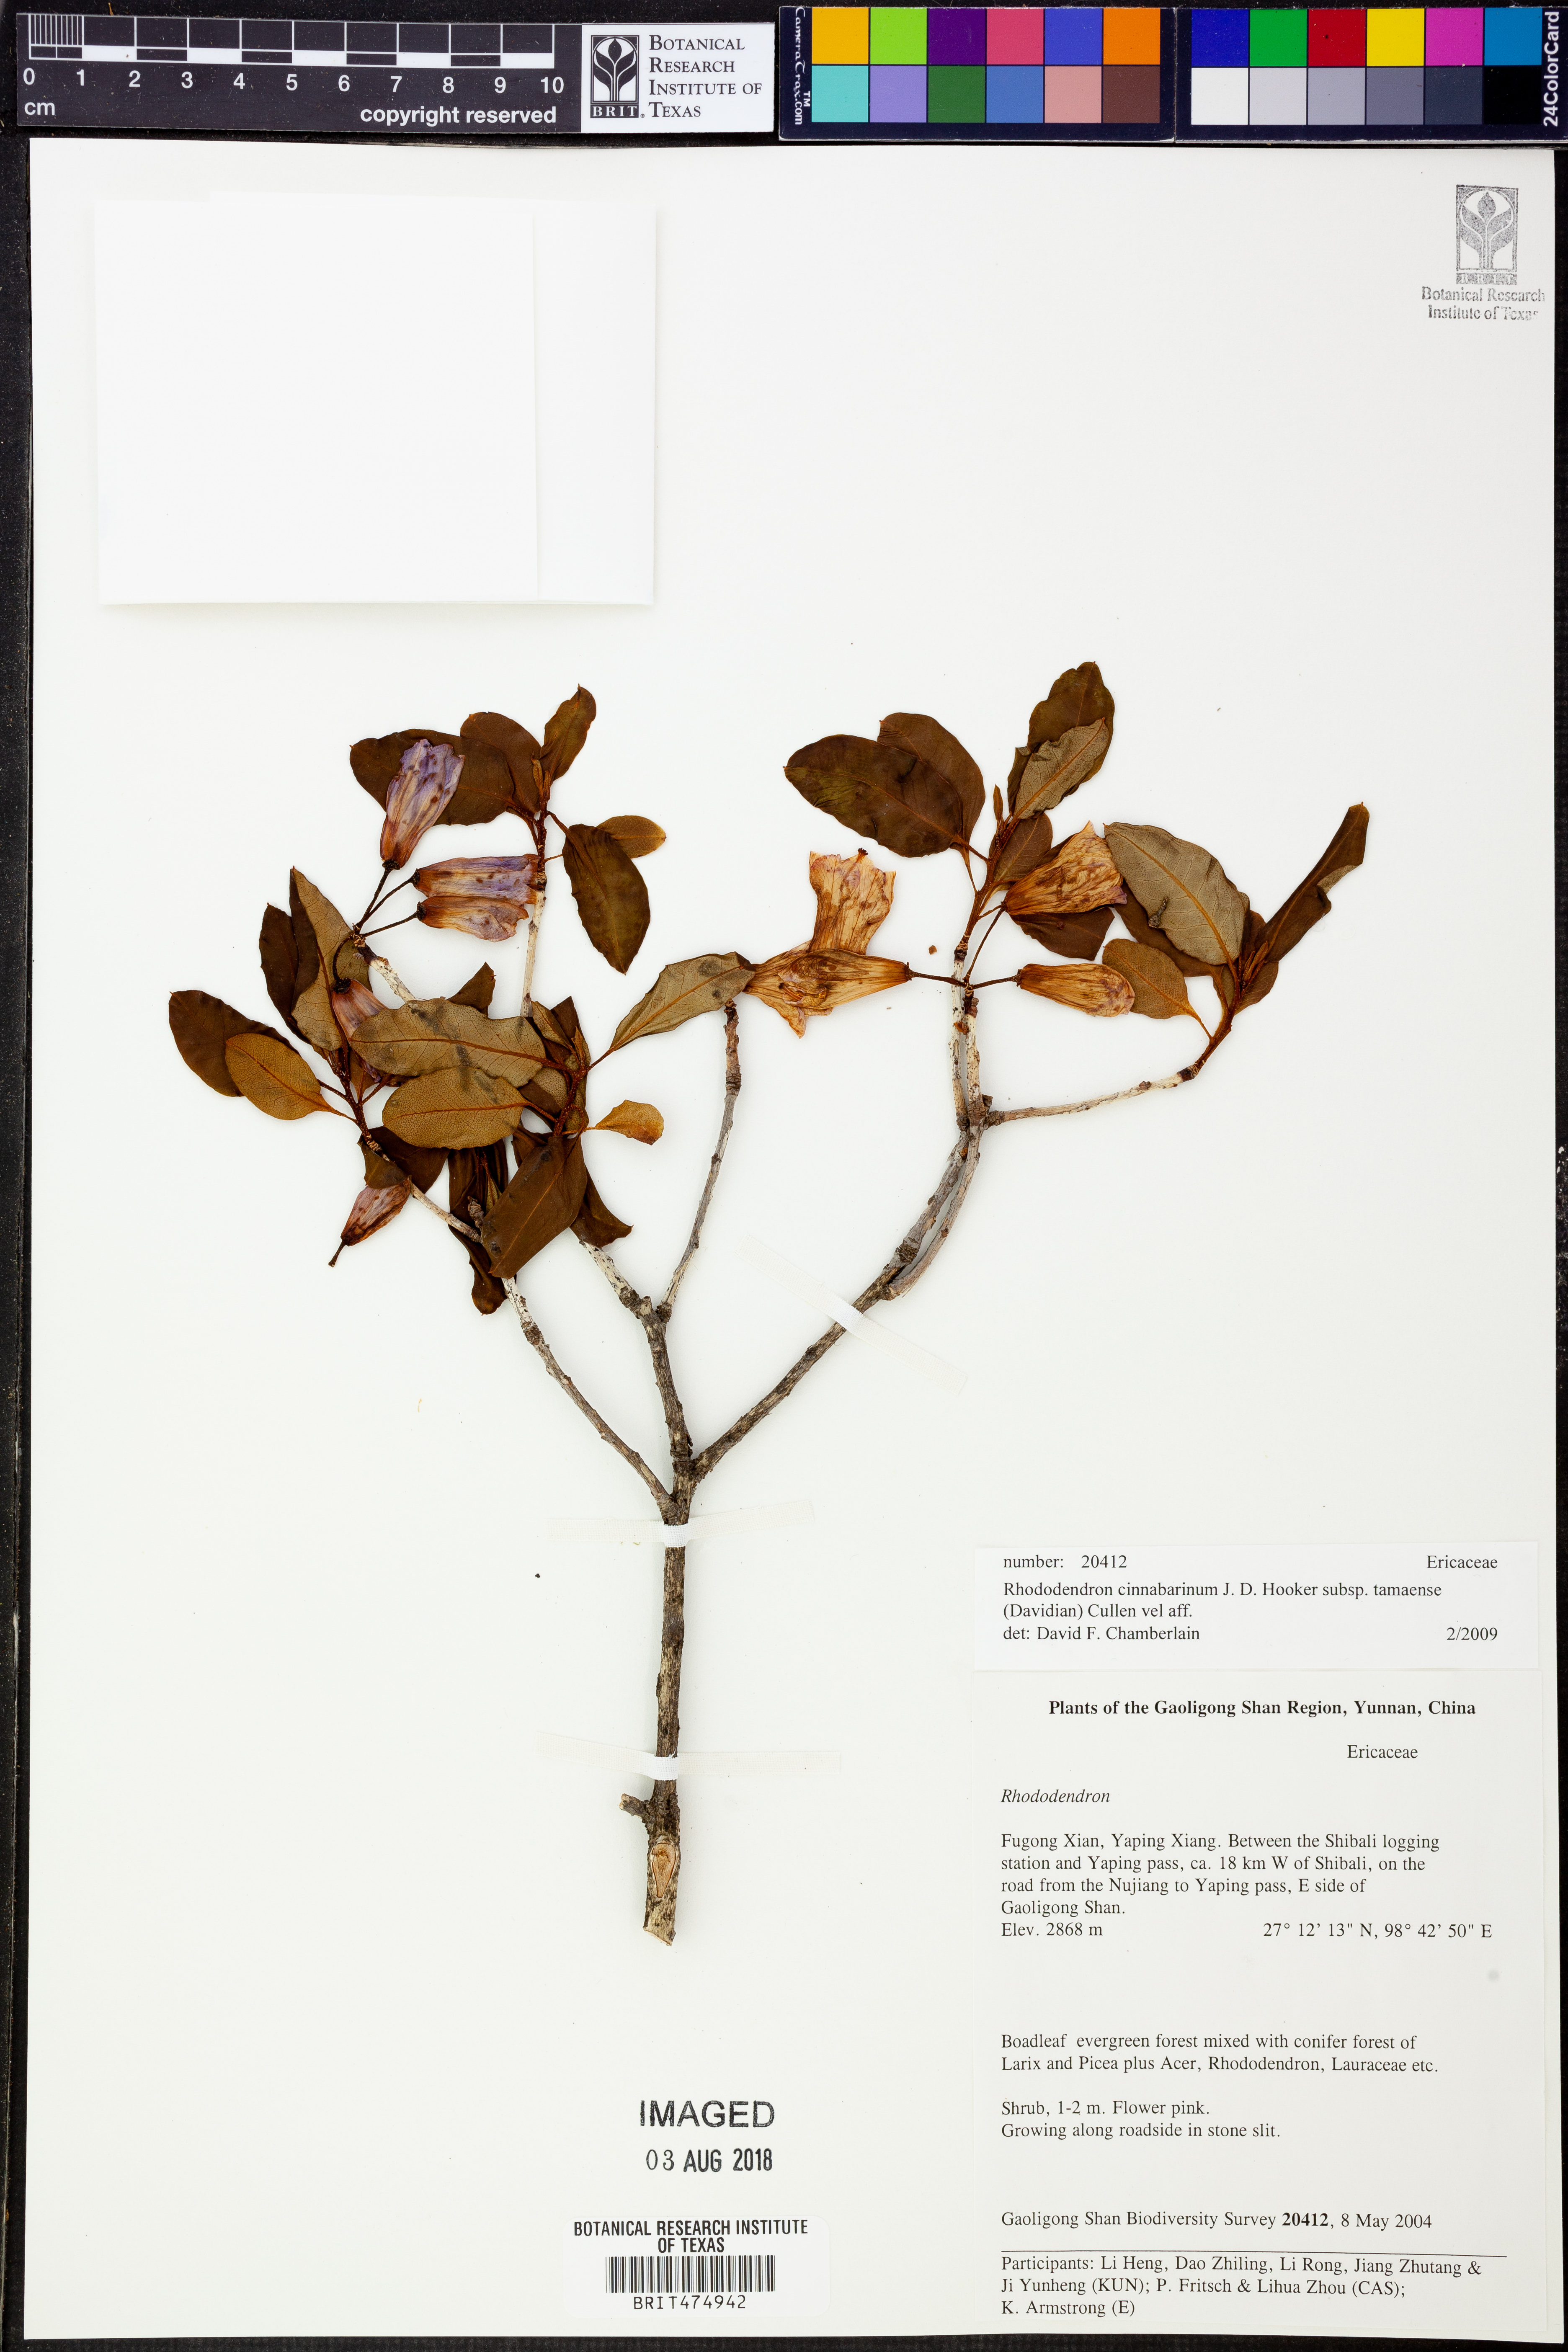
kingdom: Plantae
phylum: Tracheophyta
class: Magnoliopsida
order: Ericales
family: Ericaceae
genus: Rhododendron
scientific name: Rhododendron cinnabarinum
